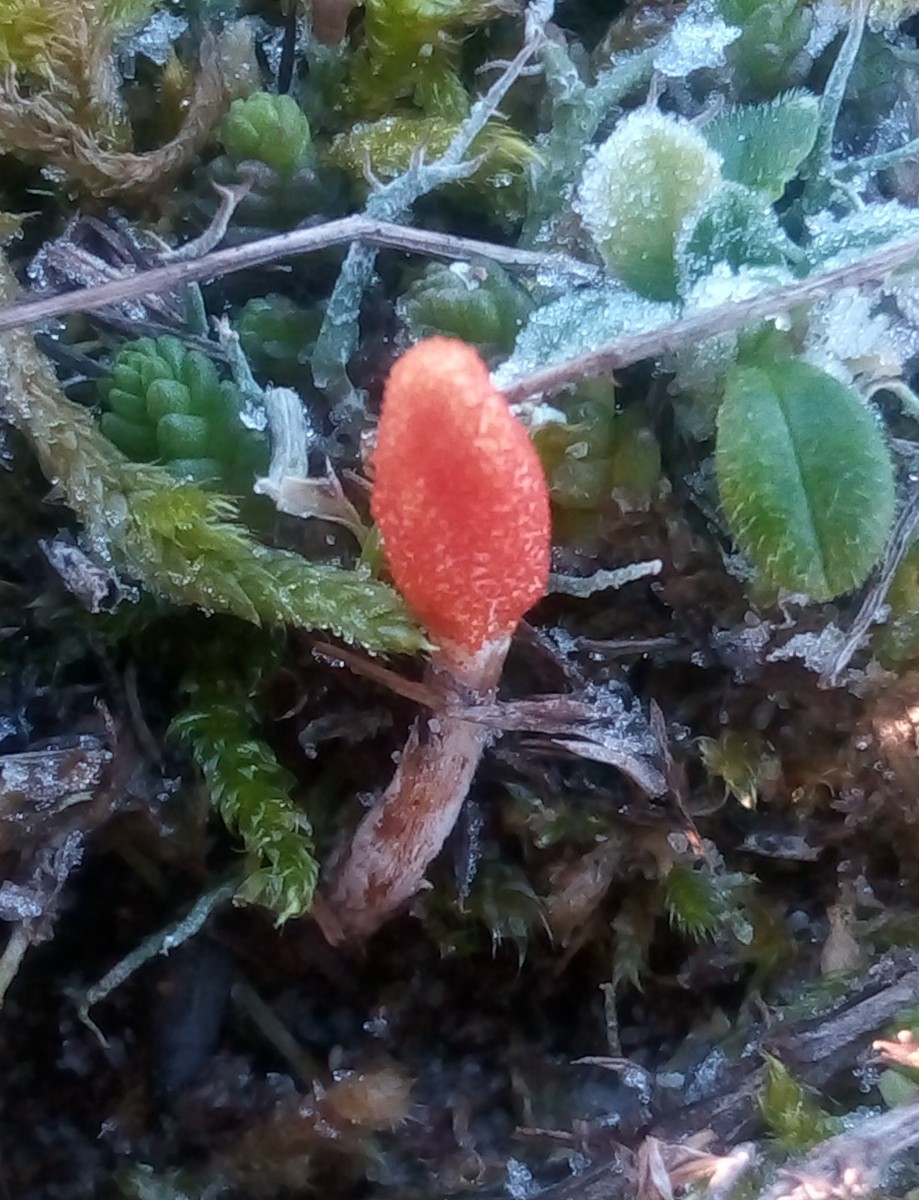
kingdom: Fungi
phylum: Ascomycota
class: Sordariomycetes
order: Hypocreales
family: Cordycipitaceae
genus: Cordyceps
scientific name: Cordyceps militaris
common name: puppe-snyltekølle
